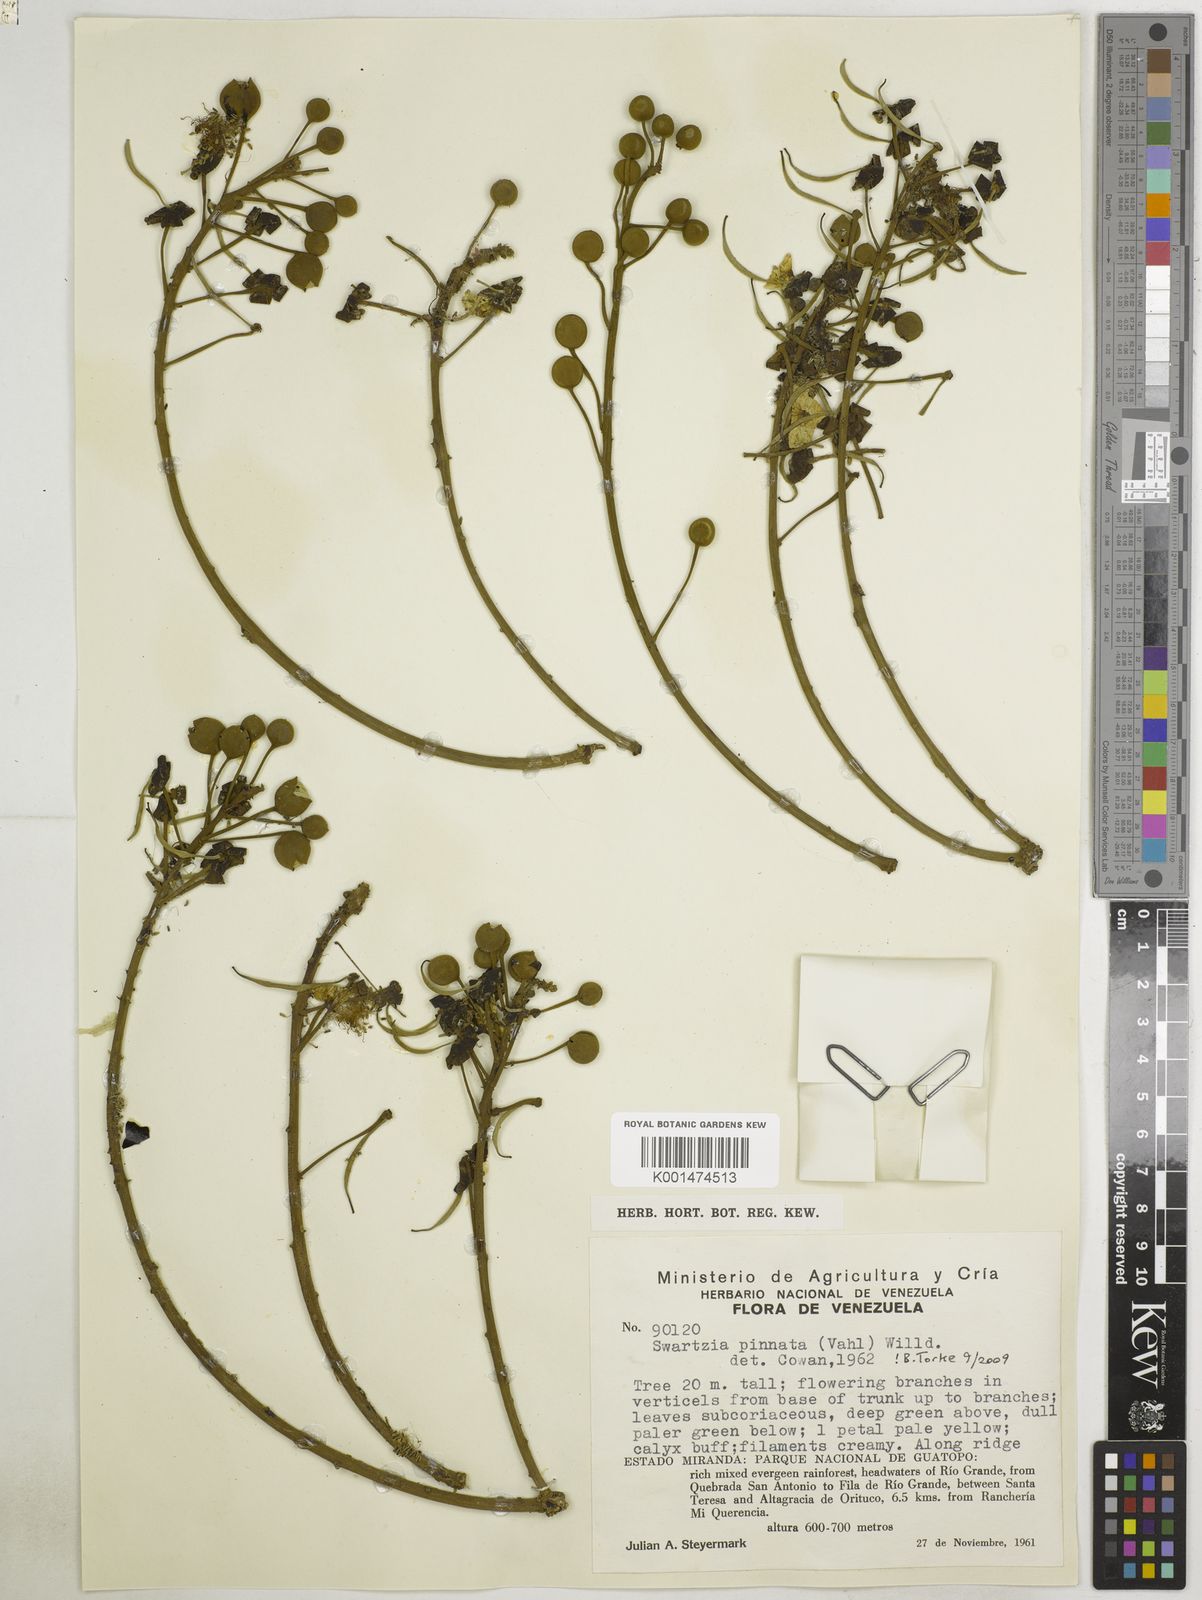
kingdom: Plantae
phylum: Tracheophyta
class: Magnoliopsida
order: Fabales
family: Fabaceae
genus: Swartzia
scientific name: Swartzia pinnata
